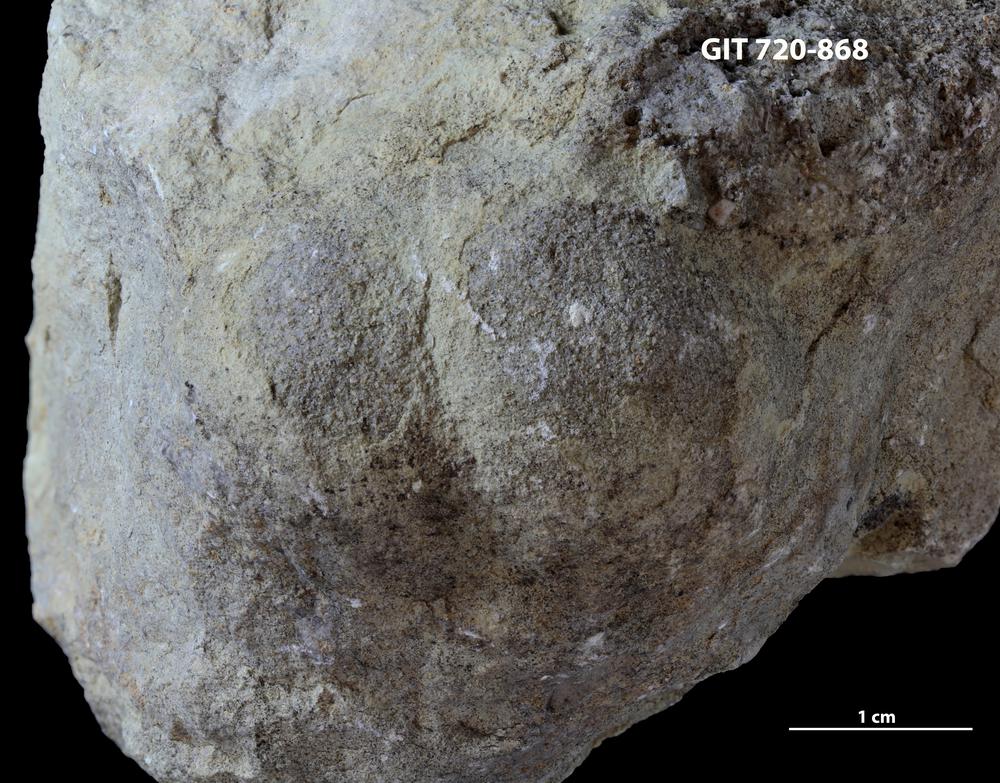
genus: Conichnus
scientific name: Conichnus
